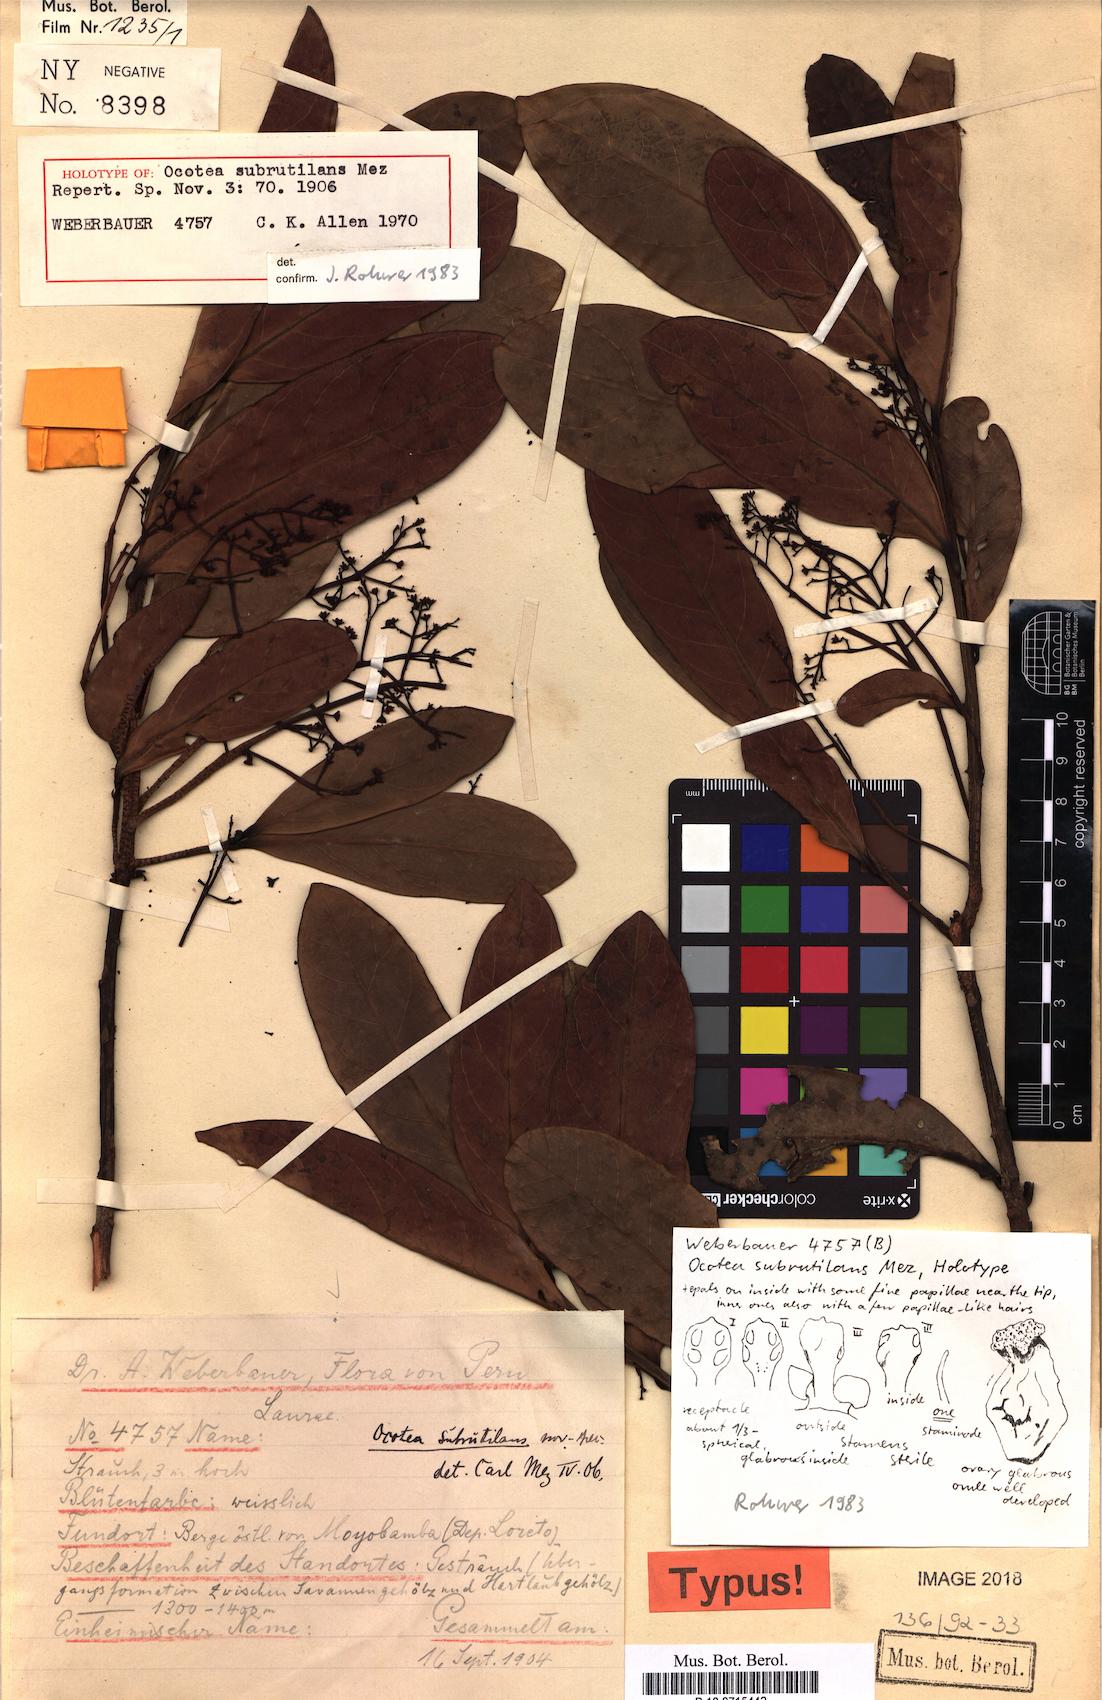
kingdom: Plantae
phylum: Tracheophyta
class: Magnoliopsida
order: Laurales
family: Lauraceae
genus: Ocotea
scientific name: Ocotea subrutilans
